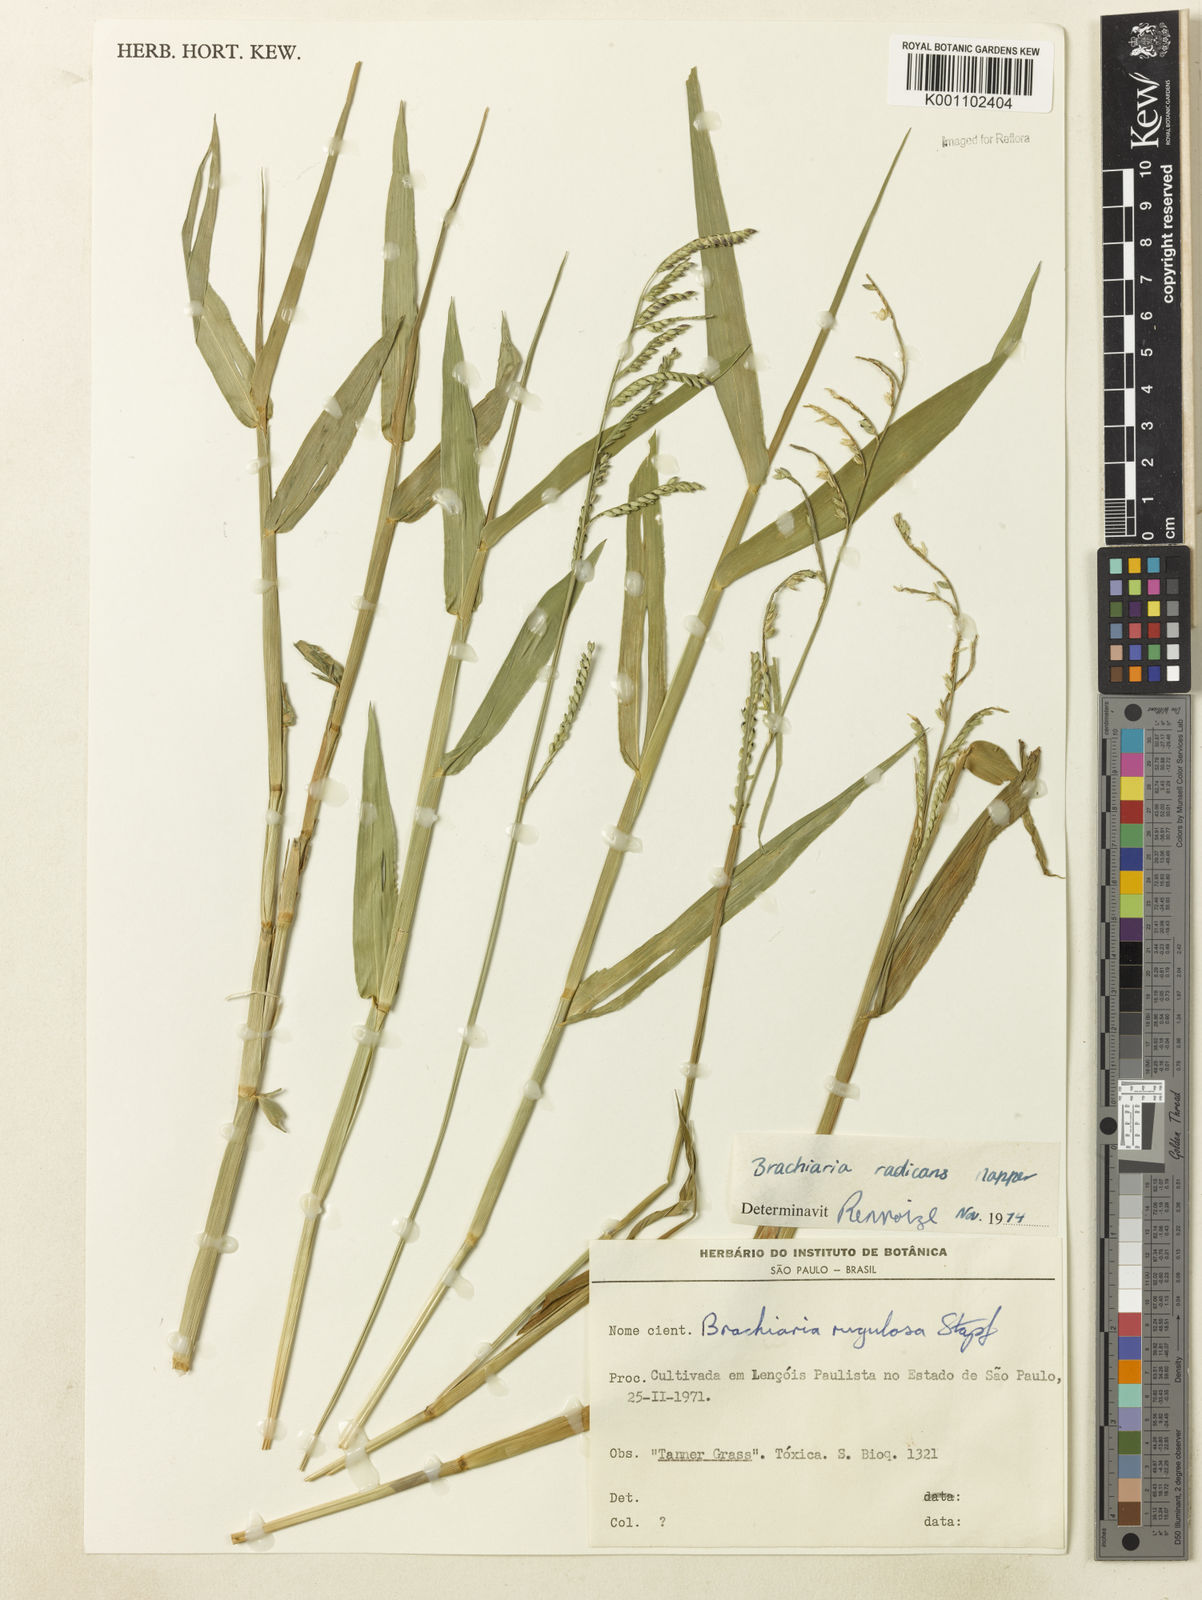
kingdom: Plantae
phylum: Tracheophyta
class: Liliopsida
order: Poales
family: Poaceae
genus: Urochloa
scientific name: Urochloa arrecta
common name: African signalgrass
